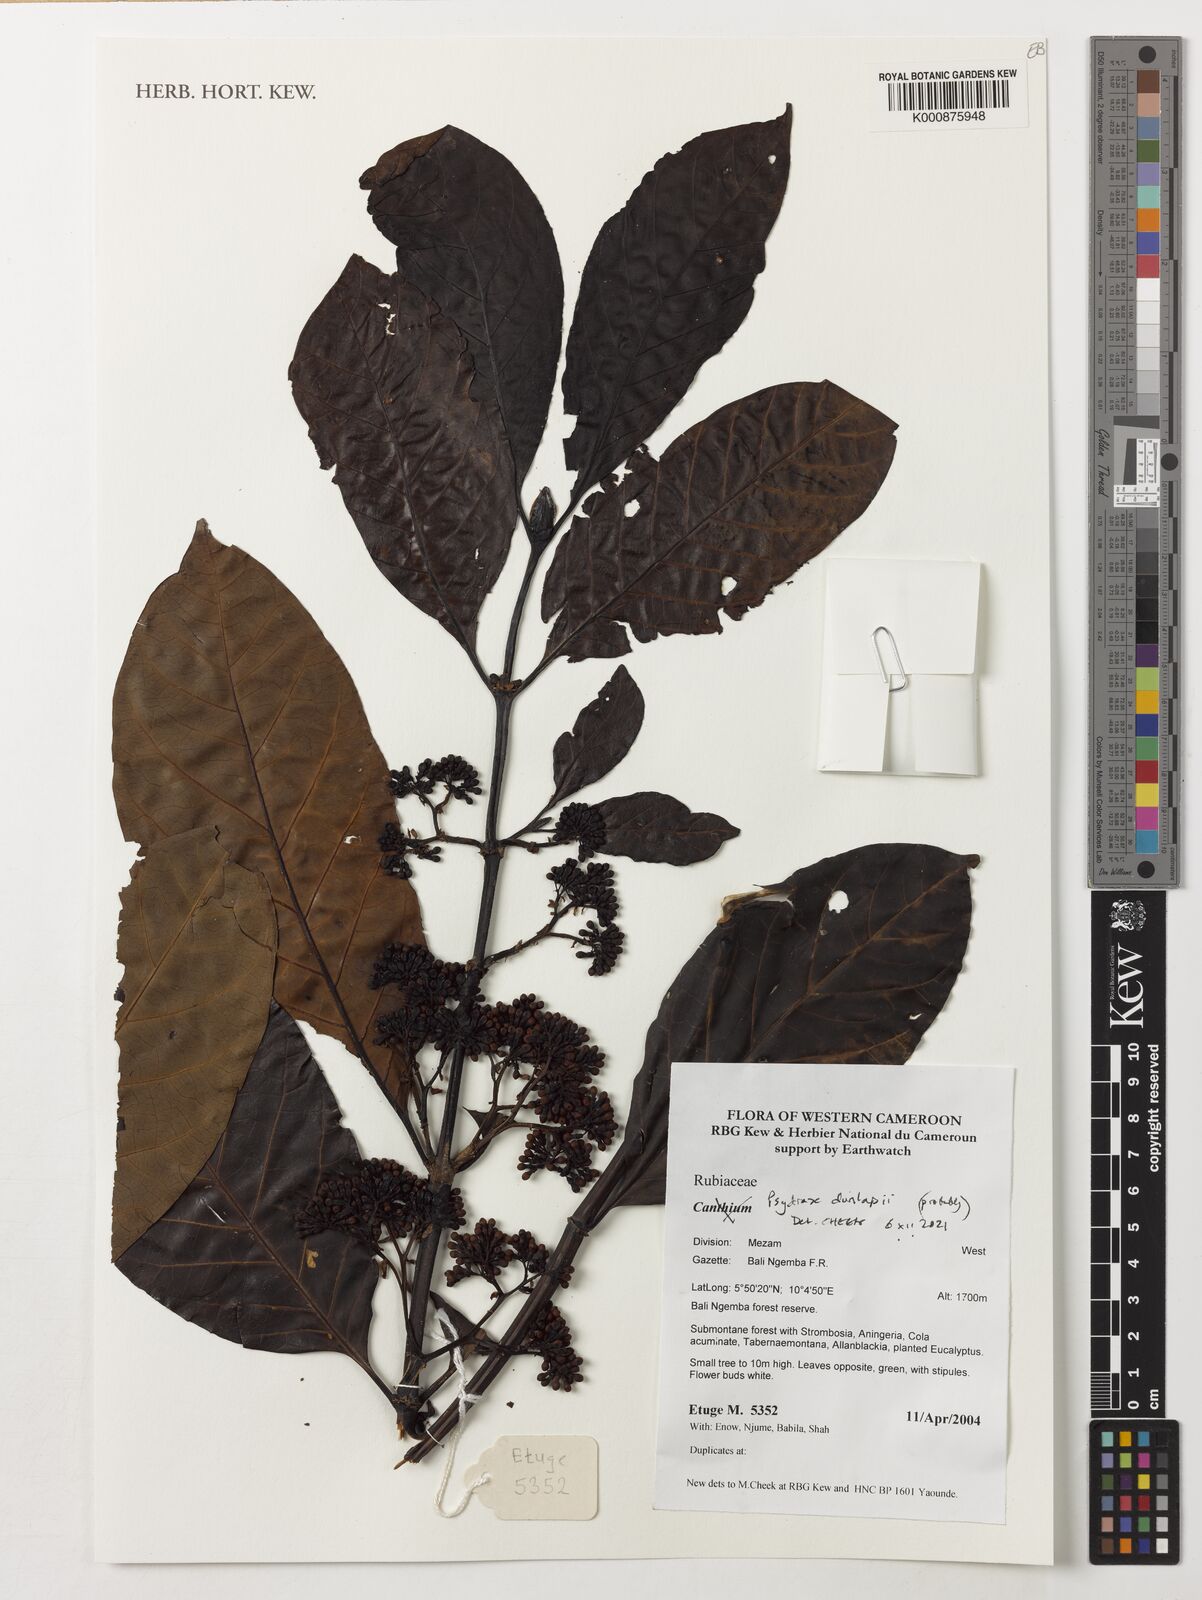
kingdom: Plantae
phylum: Tracheophyta
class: Magnoliopsida
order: Gentianales
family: Rubiaceae
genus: Psydrax
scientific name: Psydrax dunlapii
